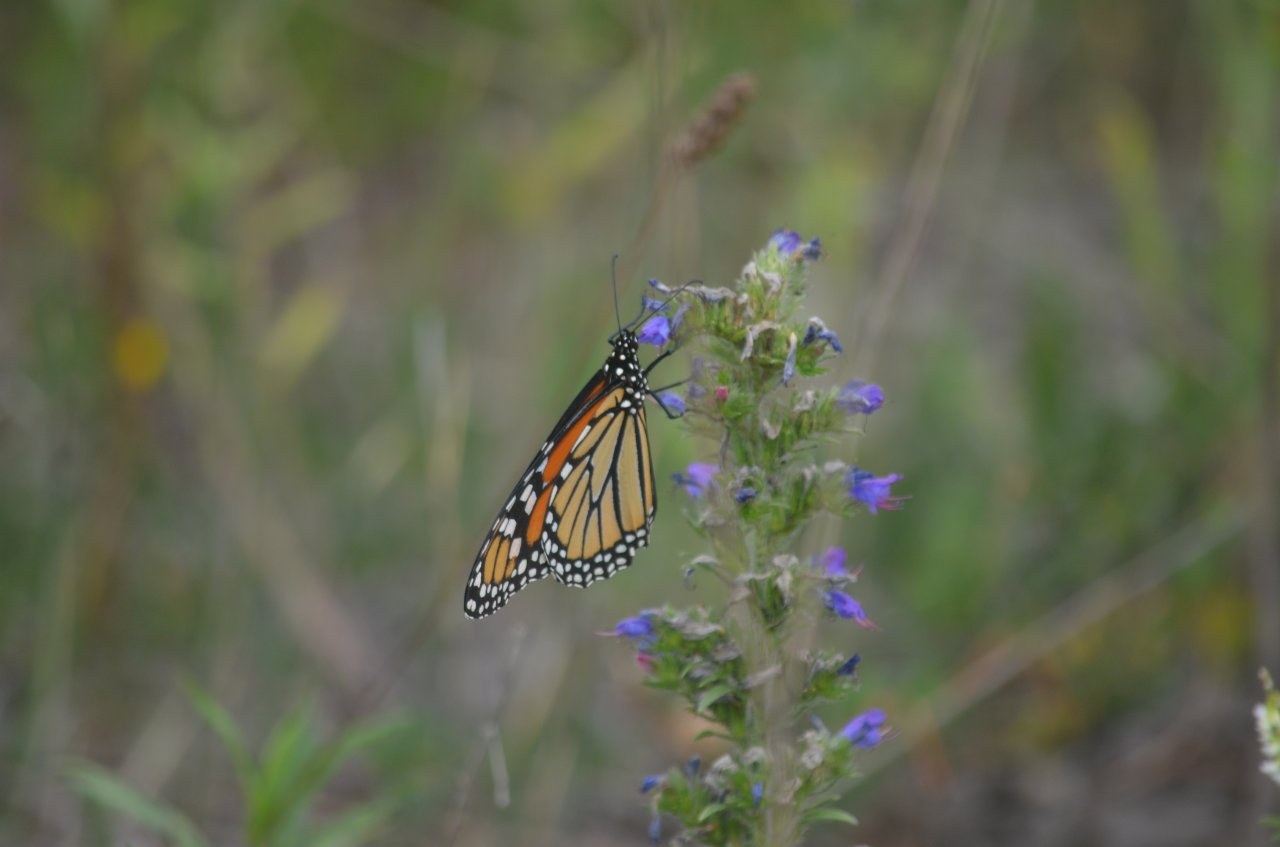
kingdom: Animalia
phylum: Arthropoda
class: Insecta
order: Lepidoptera
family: Nymphalidae
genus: Danaus
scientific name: Danaus plexippus
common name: Monarch
